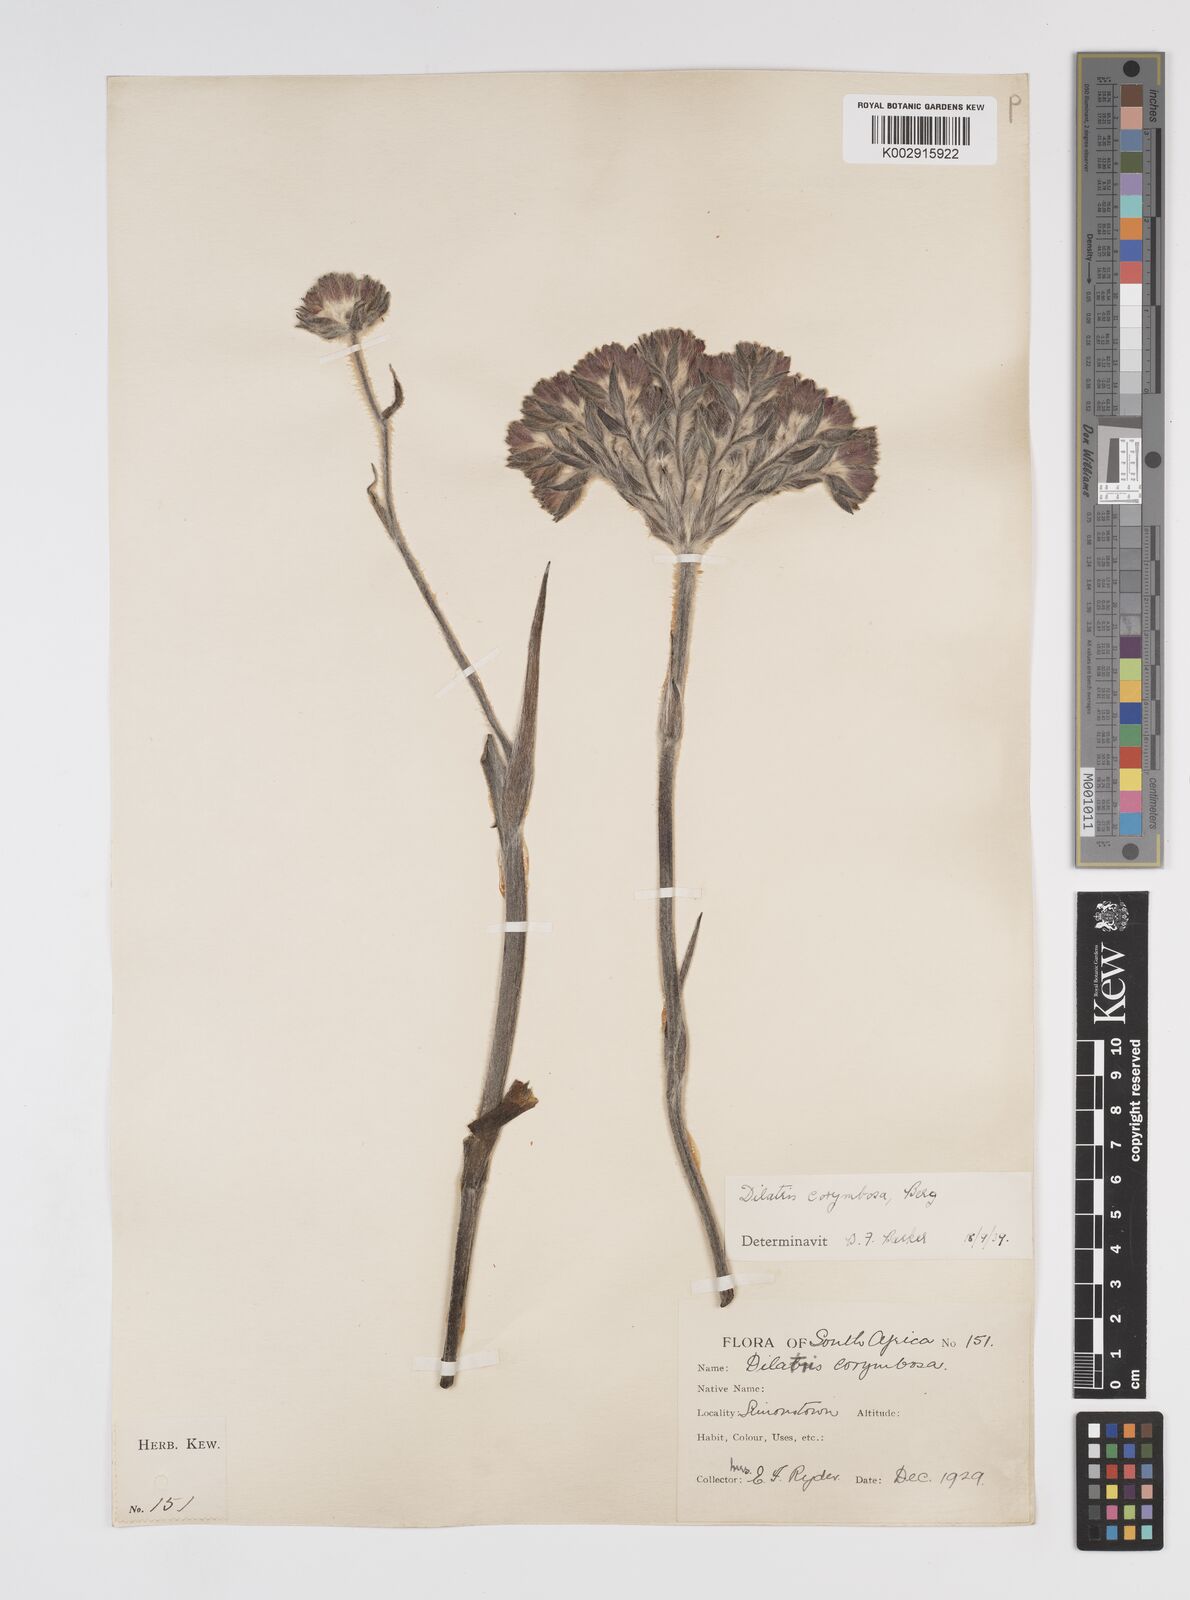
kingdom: Plantae
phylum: Tracheophyta
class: Liliopsida
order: Commelinales
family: Haemodoraceae
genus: Dilatris
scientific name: Dilatris corymbosa
